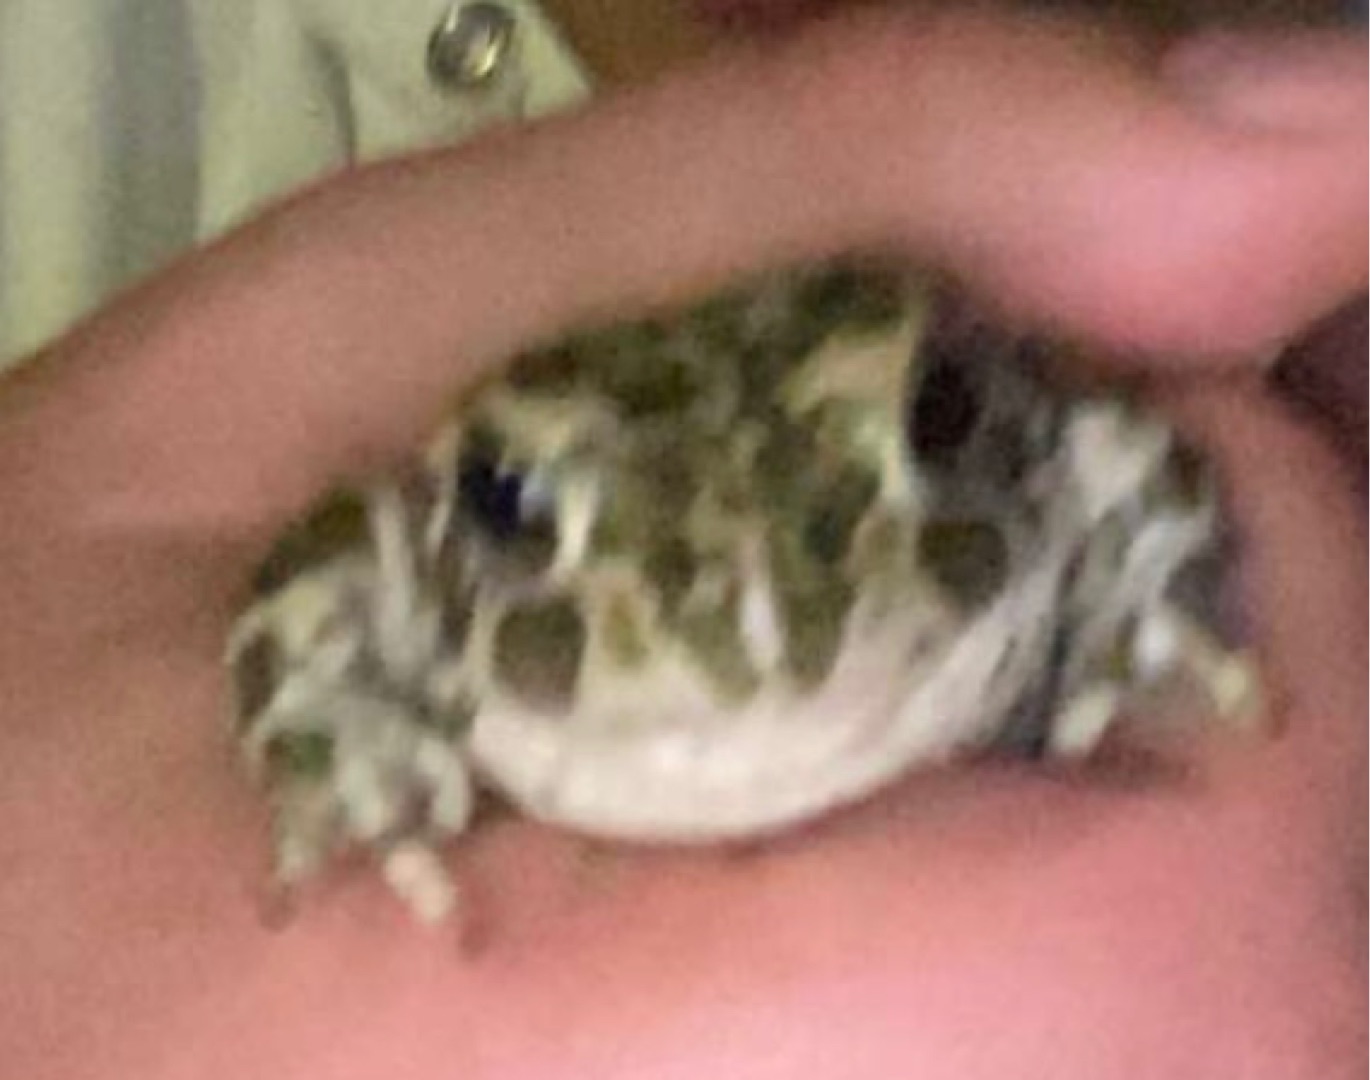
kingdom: Animalia
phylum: Chordata
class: Amphibia
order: Anura
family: Bufonidae
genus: Bufotes
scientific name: Bufotes viridis
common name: Grønbroget tudse
